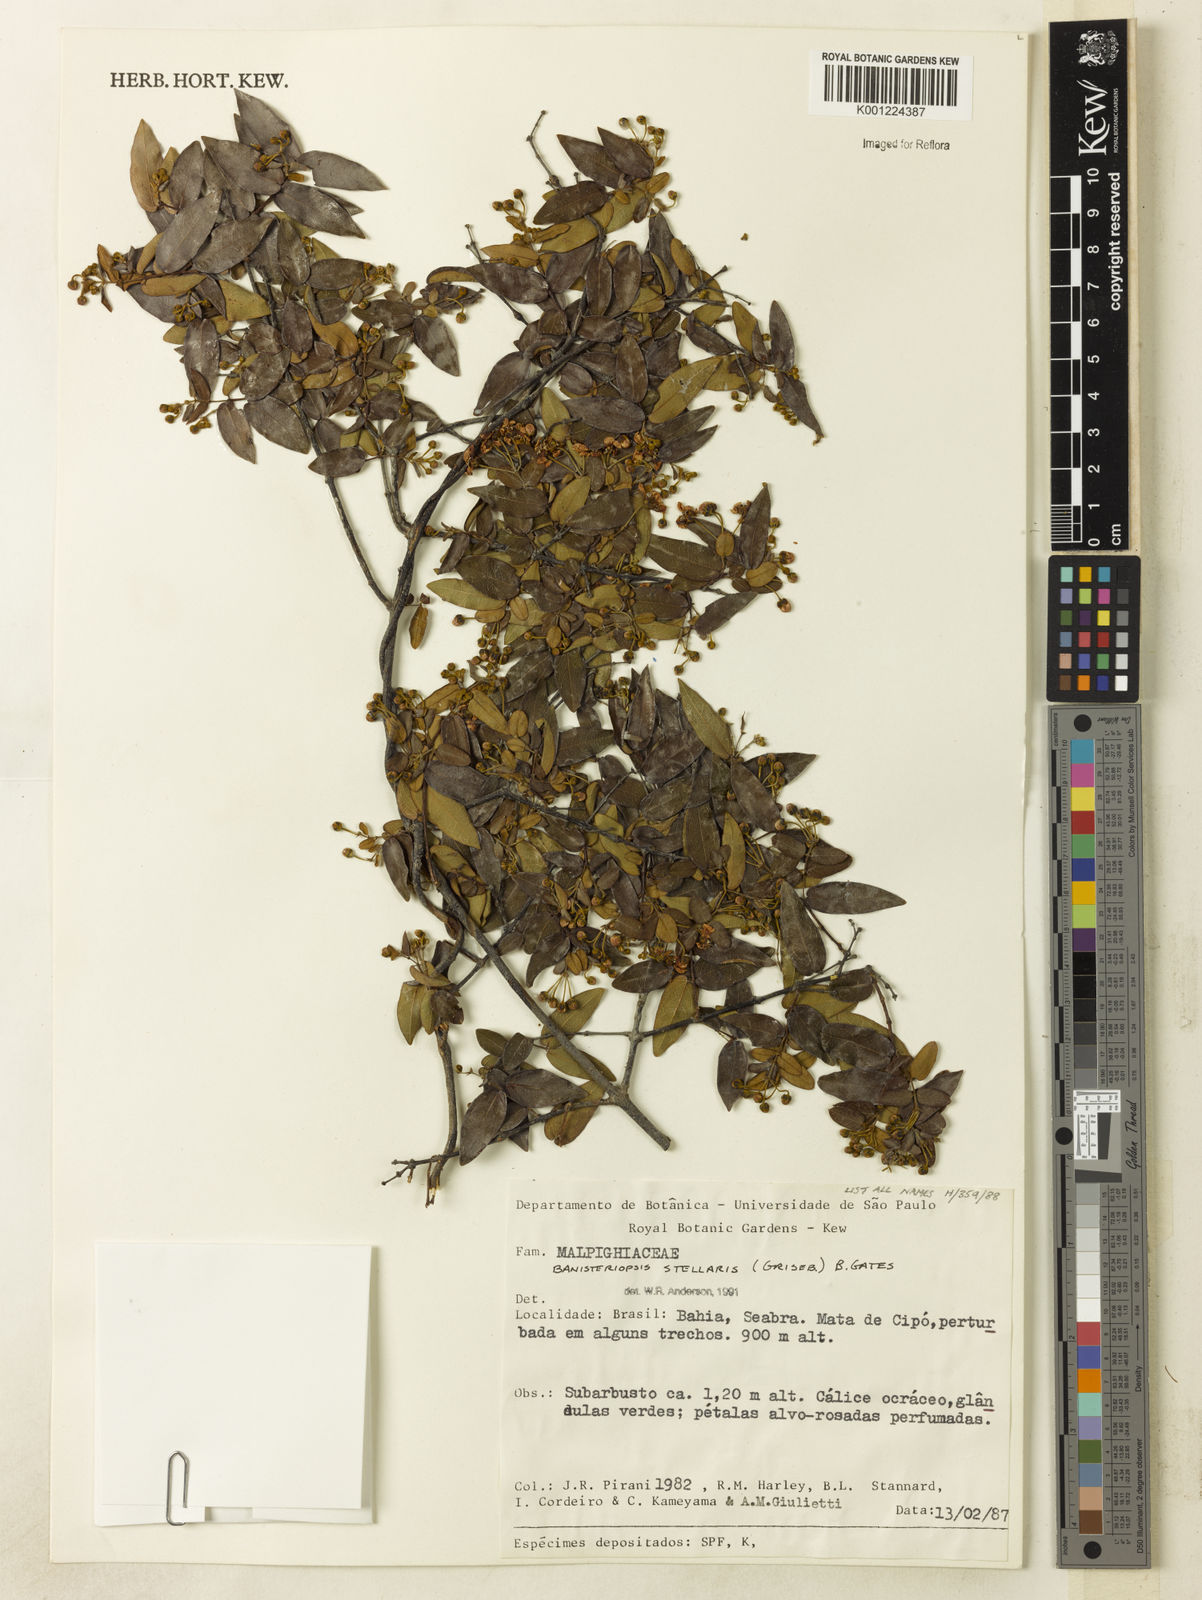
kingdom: Plantae
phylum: Tracheophyta
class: Magnoliopsida
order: Malpighiales
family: Malpighiaceae
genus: Banisteriopsis
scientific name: Banisteriopsis stellaris
